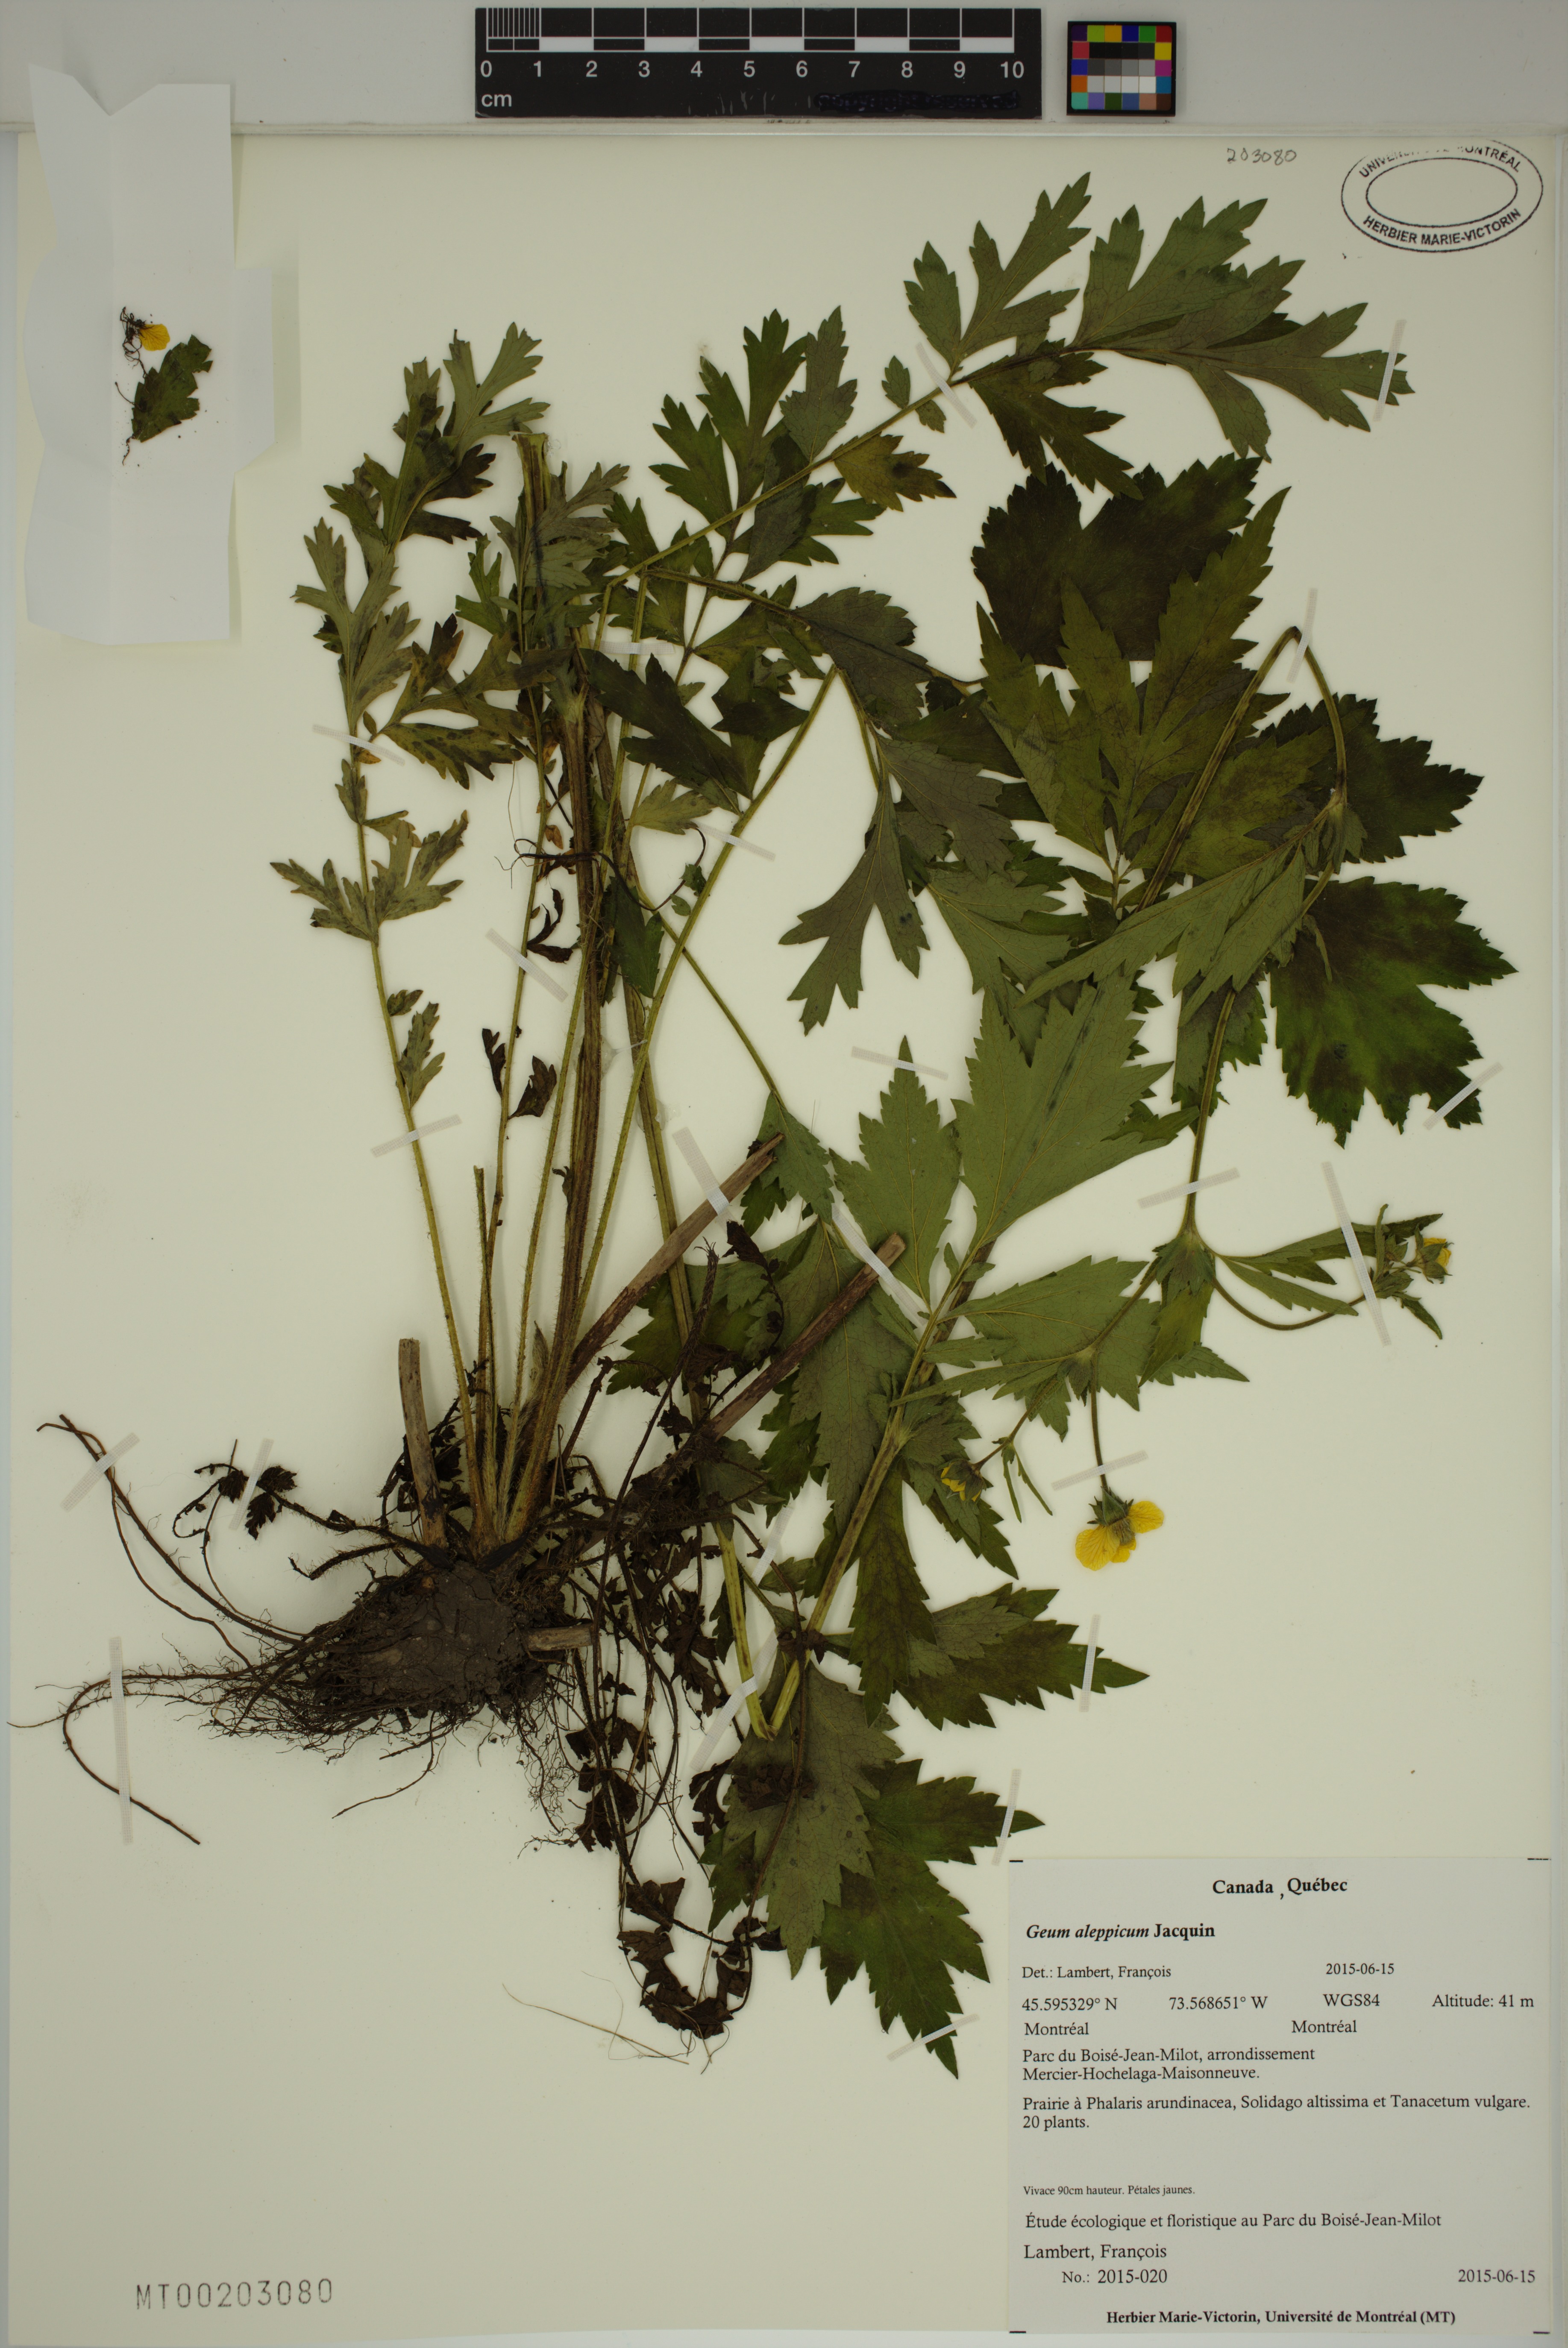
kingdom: Plantae
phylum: Tracheophyta
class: Magnoliopsida
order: Rosales
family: Rosaceae
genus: Geum
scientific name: Geum aleppicum
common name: Yellow avens
